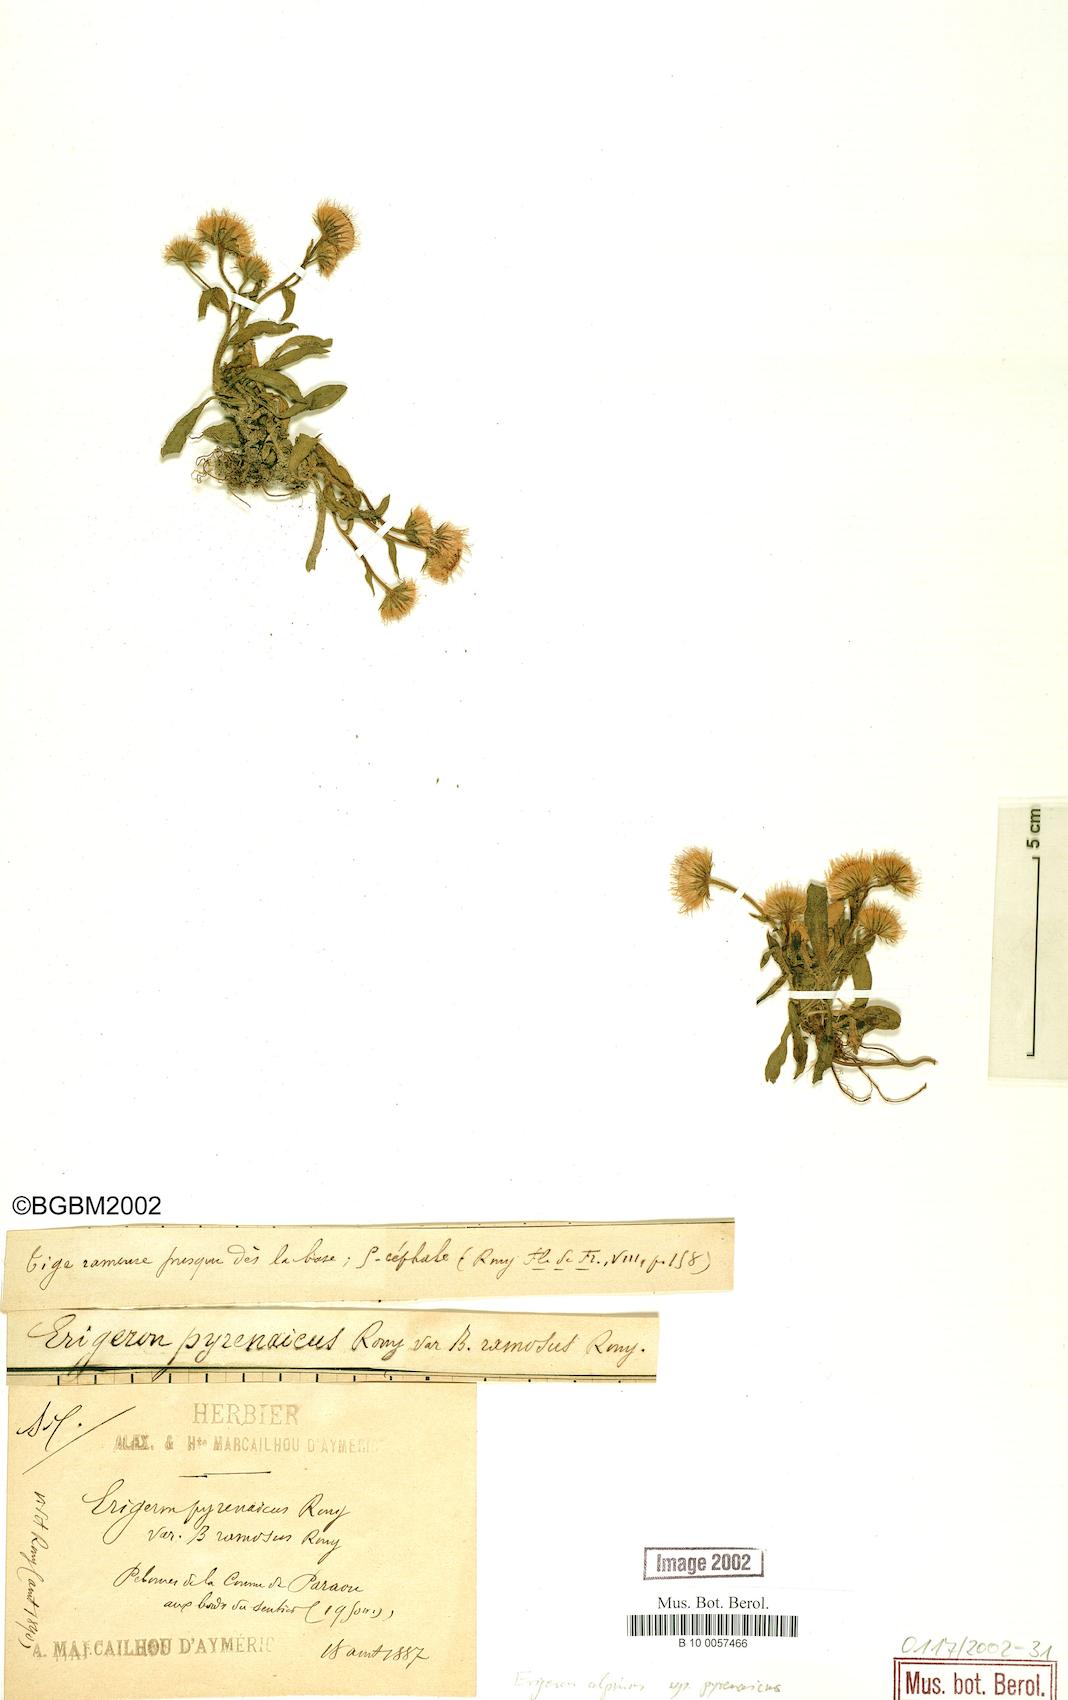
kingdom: Plantae
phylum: Tracheophyta
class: Magnoliopsida
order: Asterales
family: Asteraceae
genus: Erigeron
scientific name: Erigeron uniflorus
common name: Northern daisy
